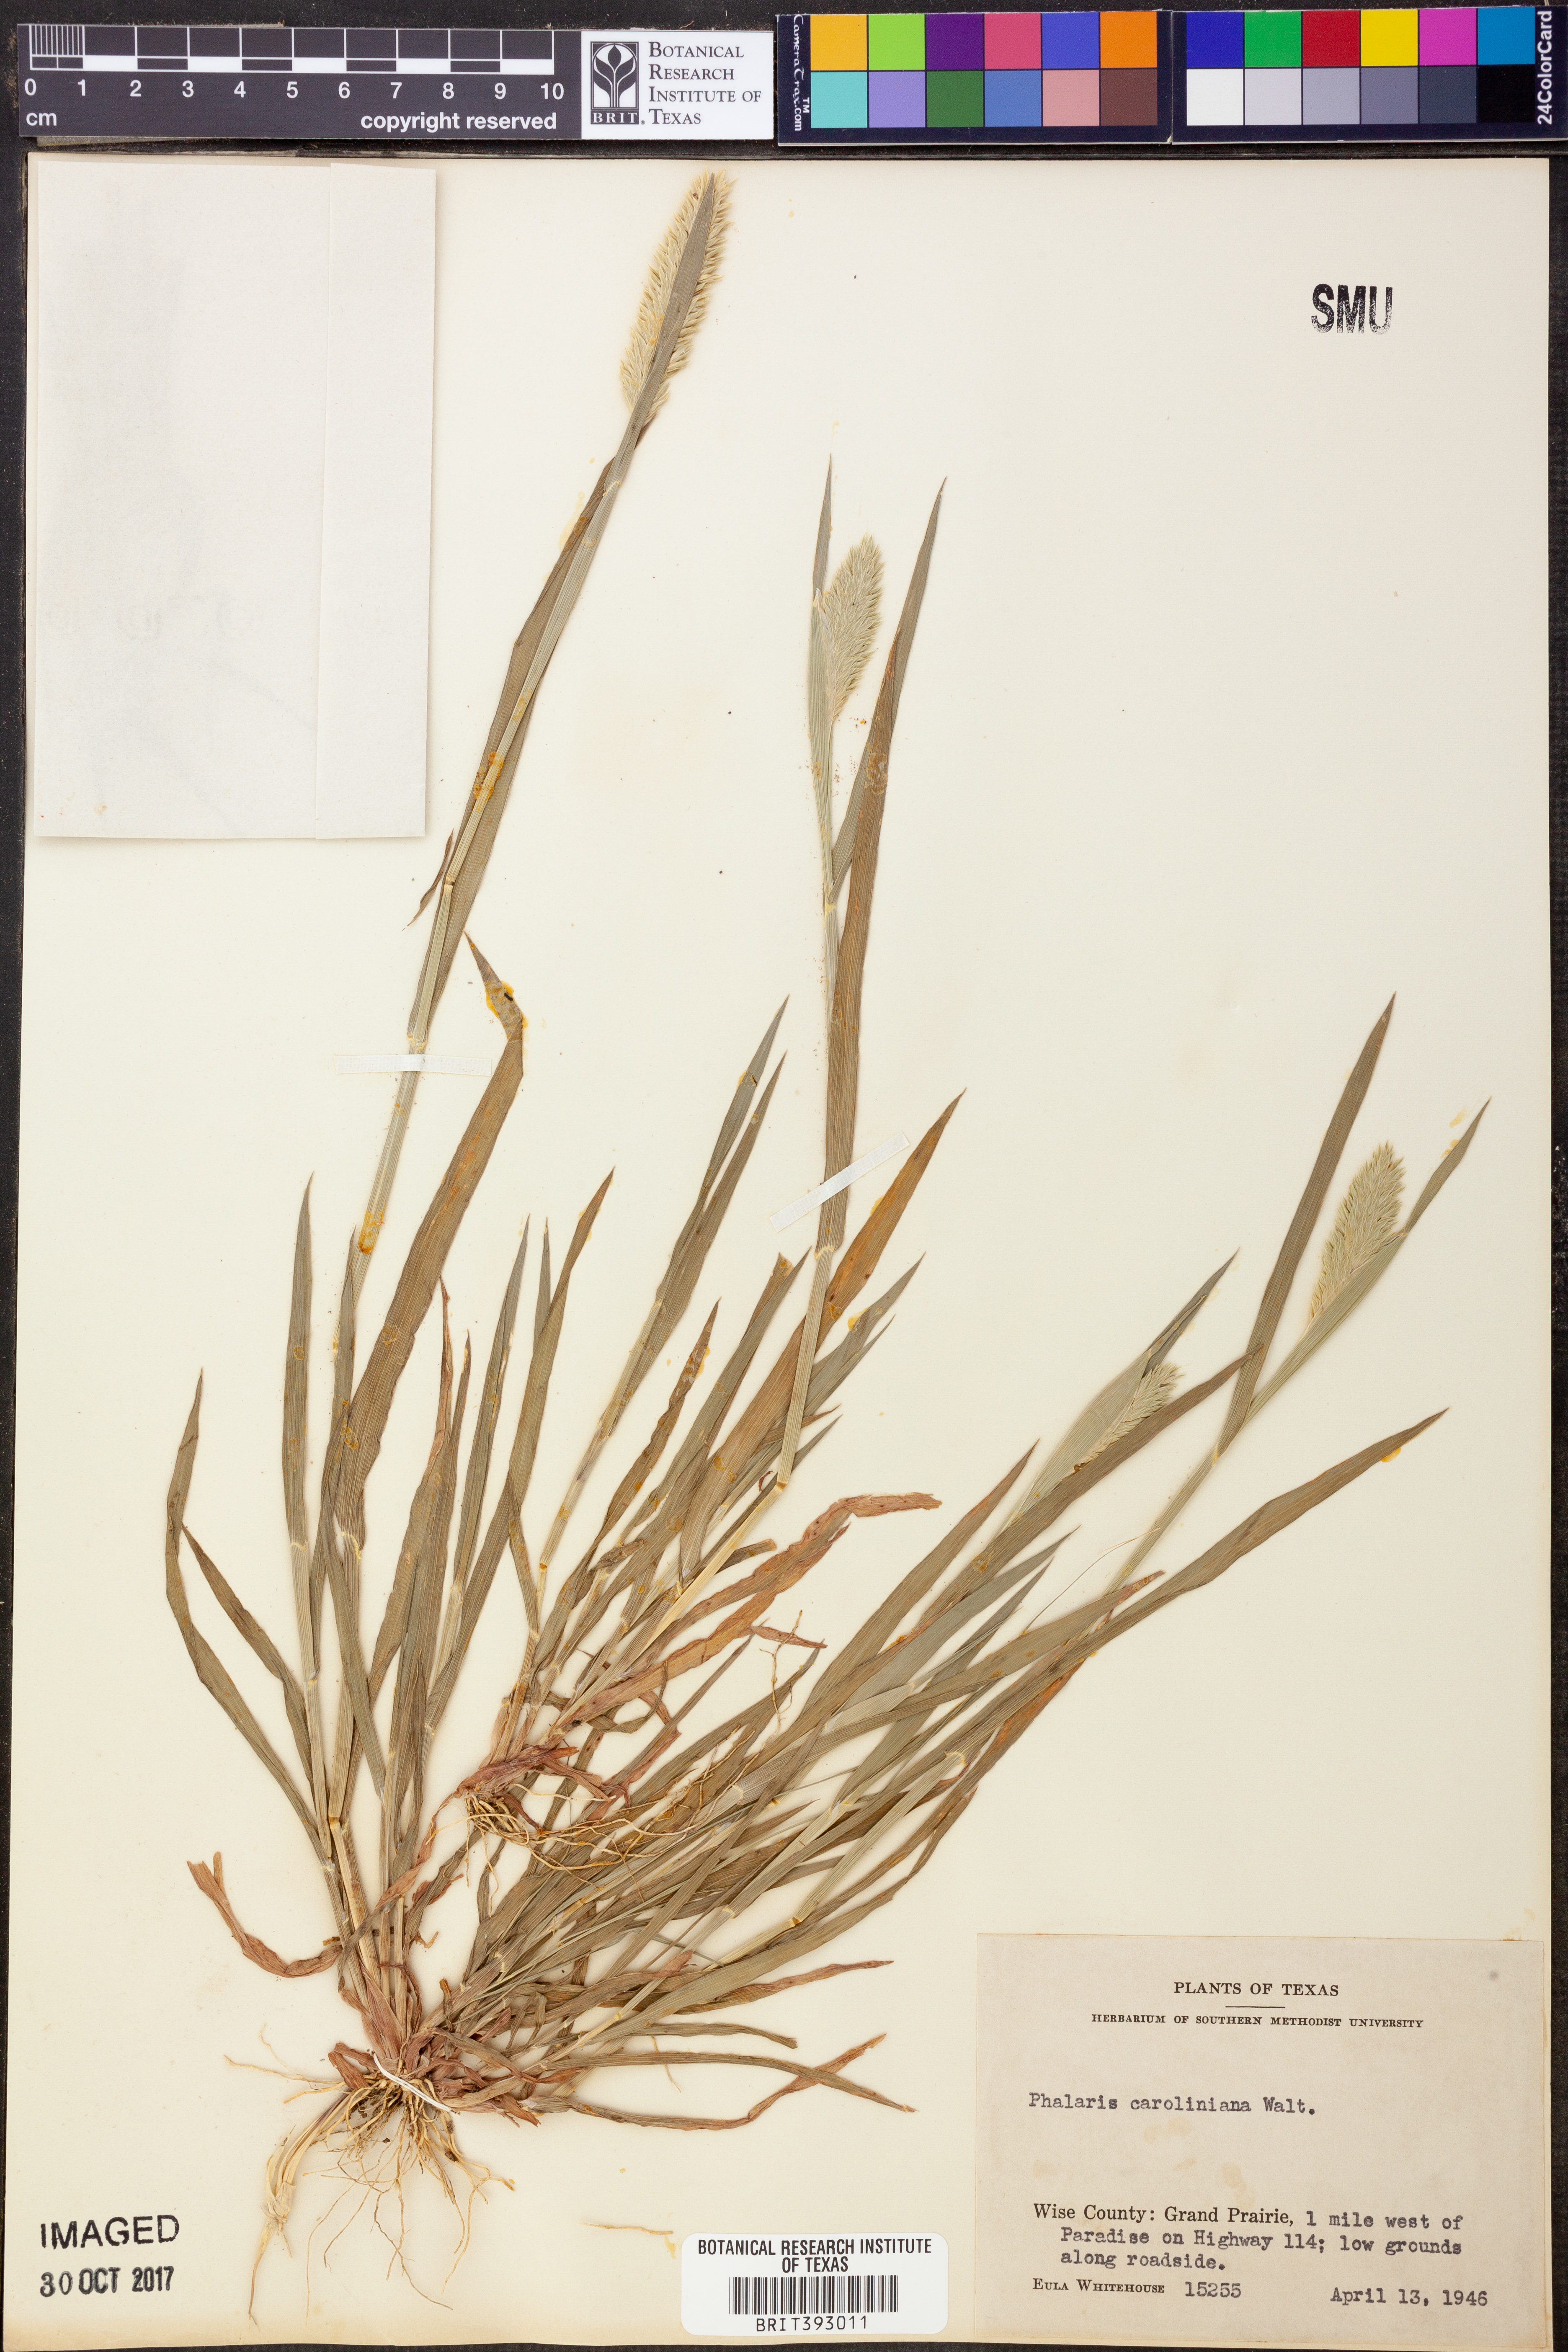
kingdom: Plantae
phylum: Tracheophyta
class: Liliopsida
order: Poales
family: Poaceae
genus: Phalaris
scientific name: Phalaris caroliniana
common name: May grass
